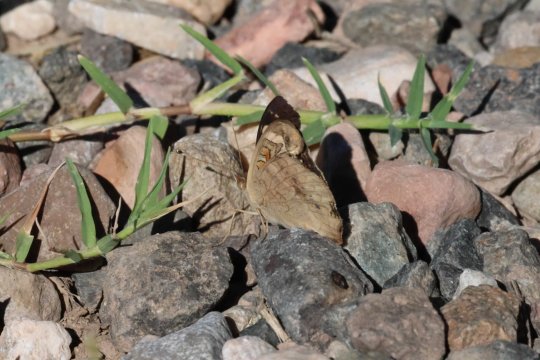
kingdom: Animalia
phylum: Arthropoda
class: Insecta
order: Lepidoptera
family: Nymphalidae
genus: Junonia
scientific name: Junonia coenia
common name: Common Buckeye
